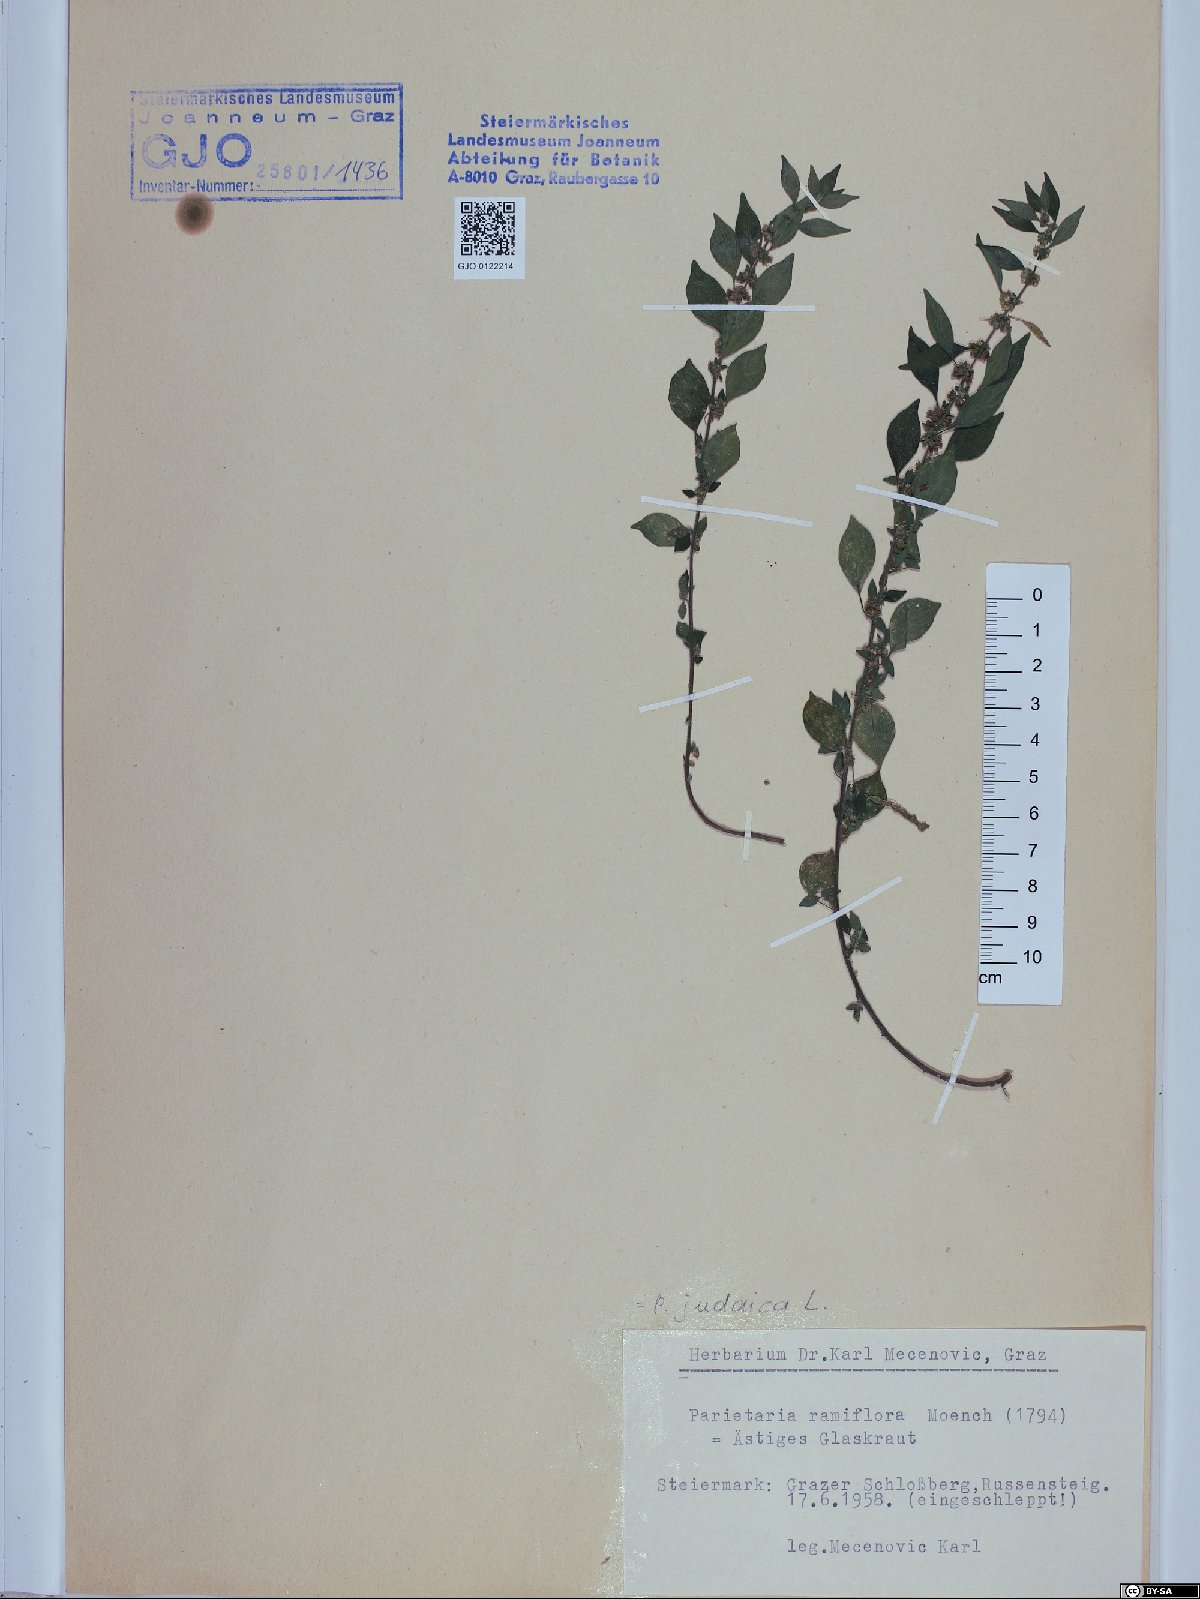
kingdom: Plantae
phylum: Tracheophyta
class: Magnoliopsida
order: Rosales
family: Urticaceae
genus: Parietaria
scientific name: Parietaria judaica
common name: Pellitory-of-the-wall
